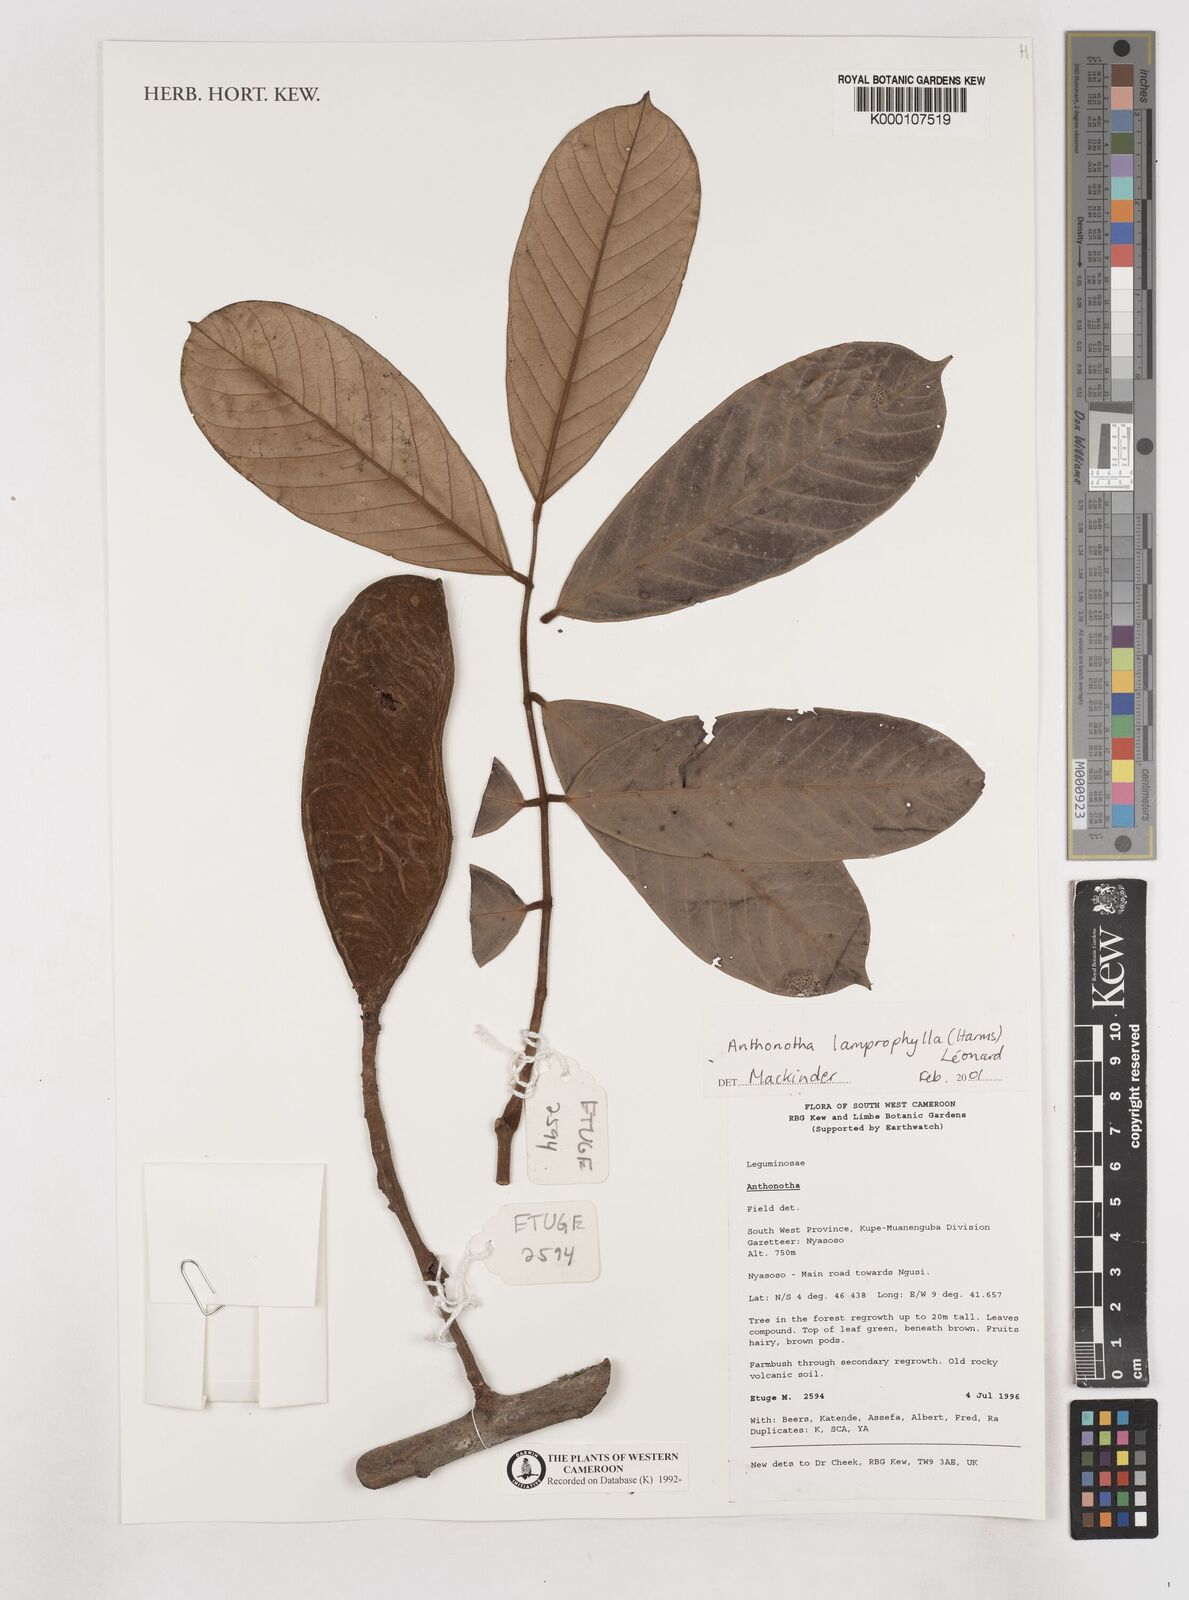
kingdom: Plantae
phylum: Tracheophyta
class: Magnoliopsida
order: Fabales
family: Fabaceae
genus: Anthonotha
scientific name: Anthonotha
